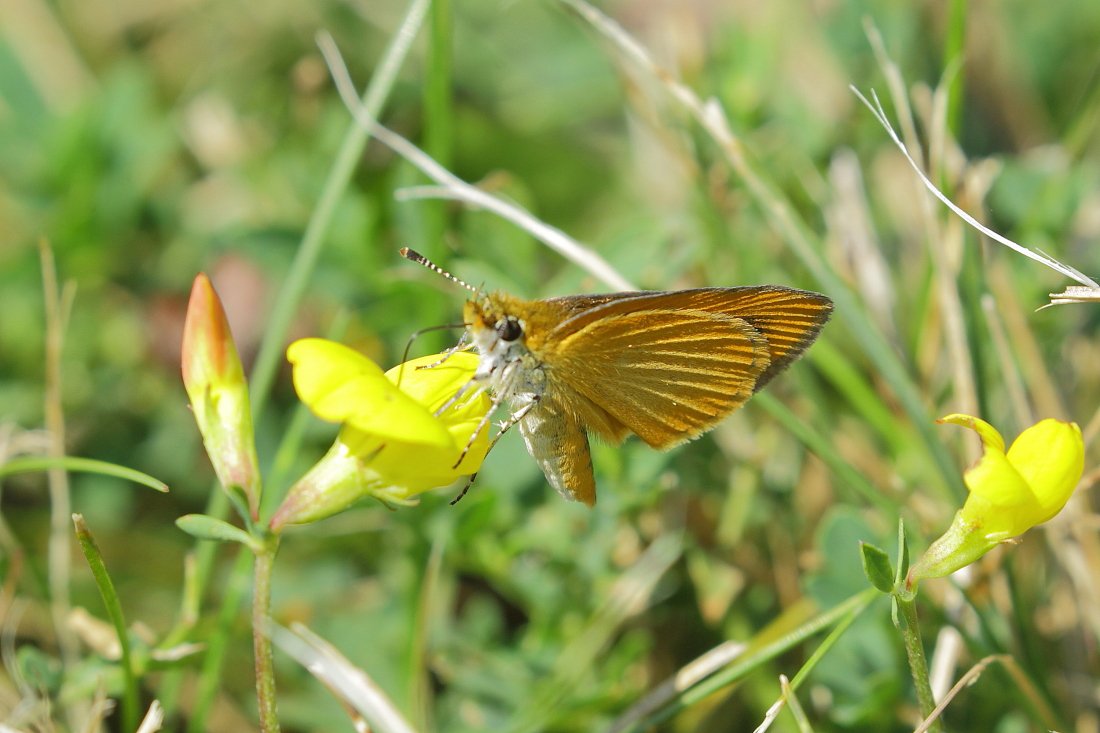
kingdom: Animalia
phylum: Arthropoda
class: Insecta
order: Lepidoptera
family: Hesperiidae
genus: Ancyloxypha
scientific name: Ancyloxypha numitor
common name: Least Skipper
